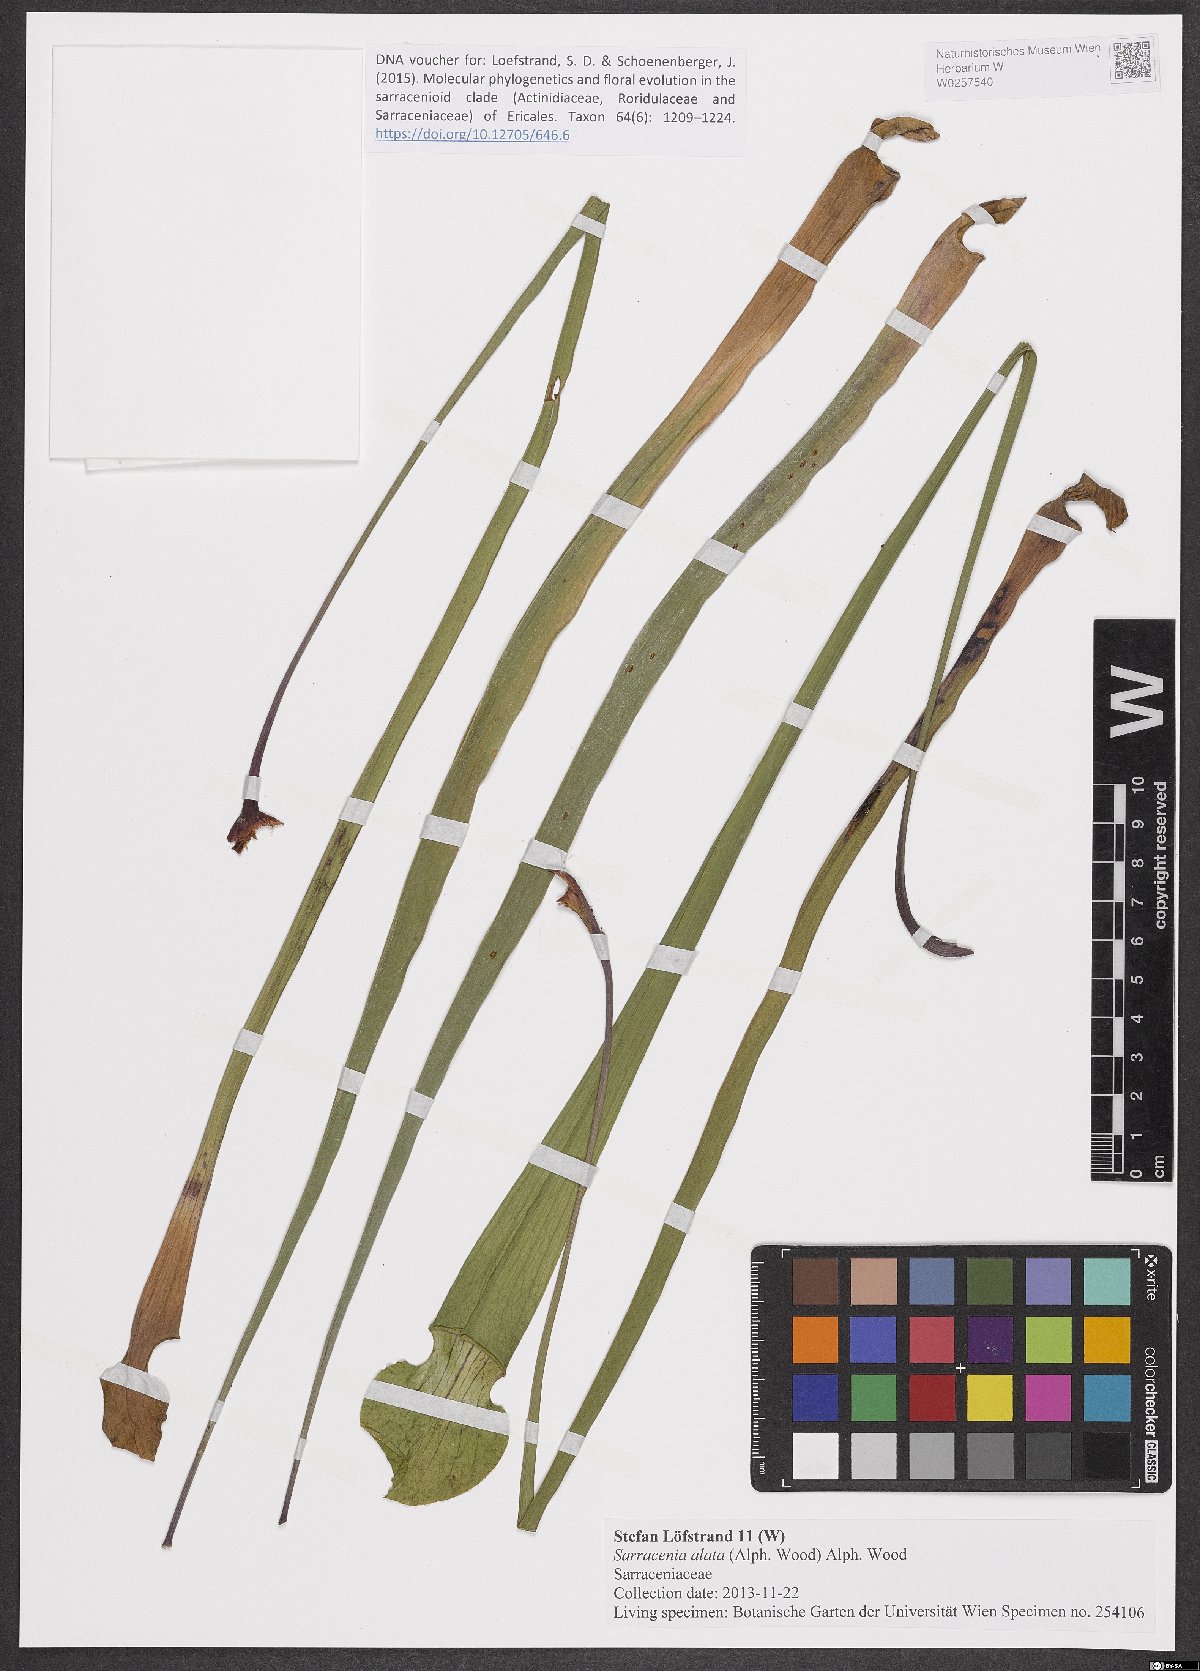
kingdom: Plantae
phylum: Tracheophyta
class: Magnoliopsida
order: Ericales
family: Sarraceniaceae
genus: Sarracenia
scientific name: Sarracenia alata
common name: Yellow trumpets
